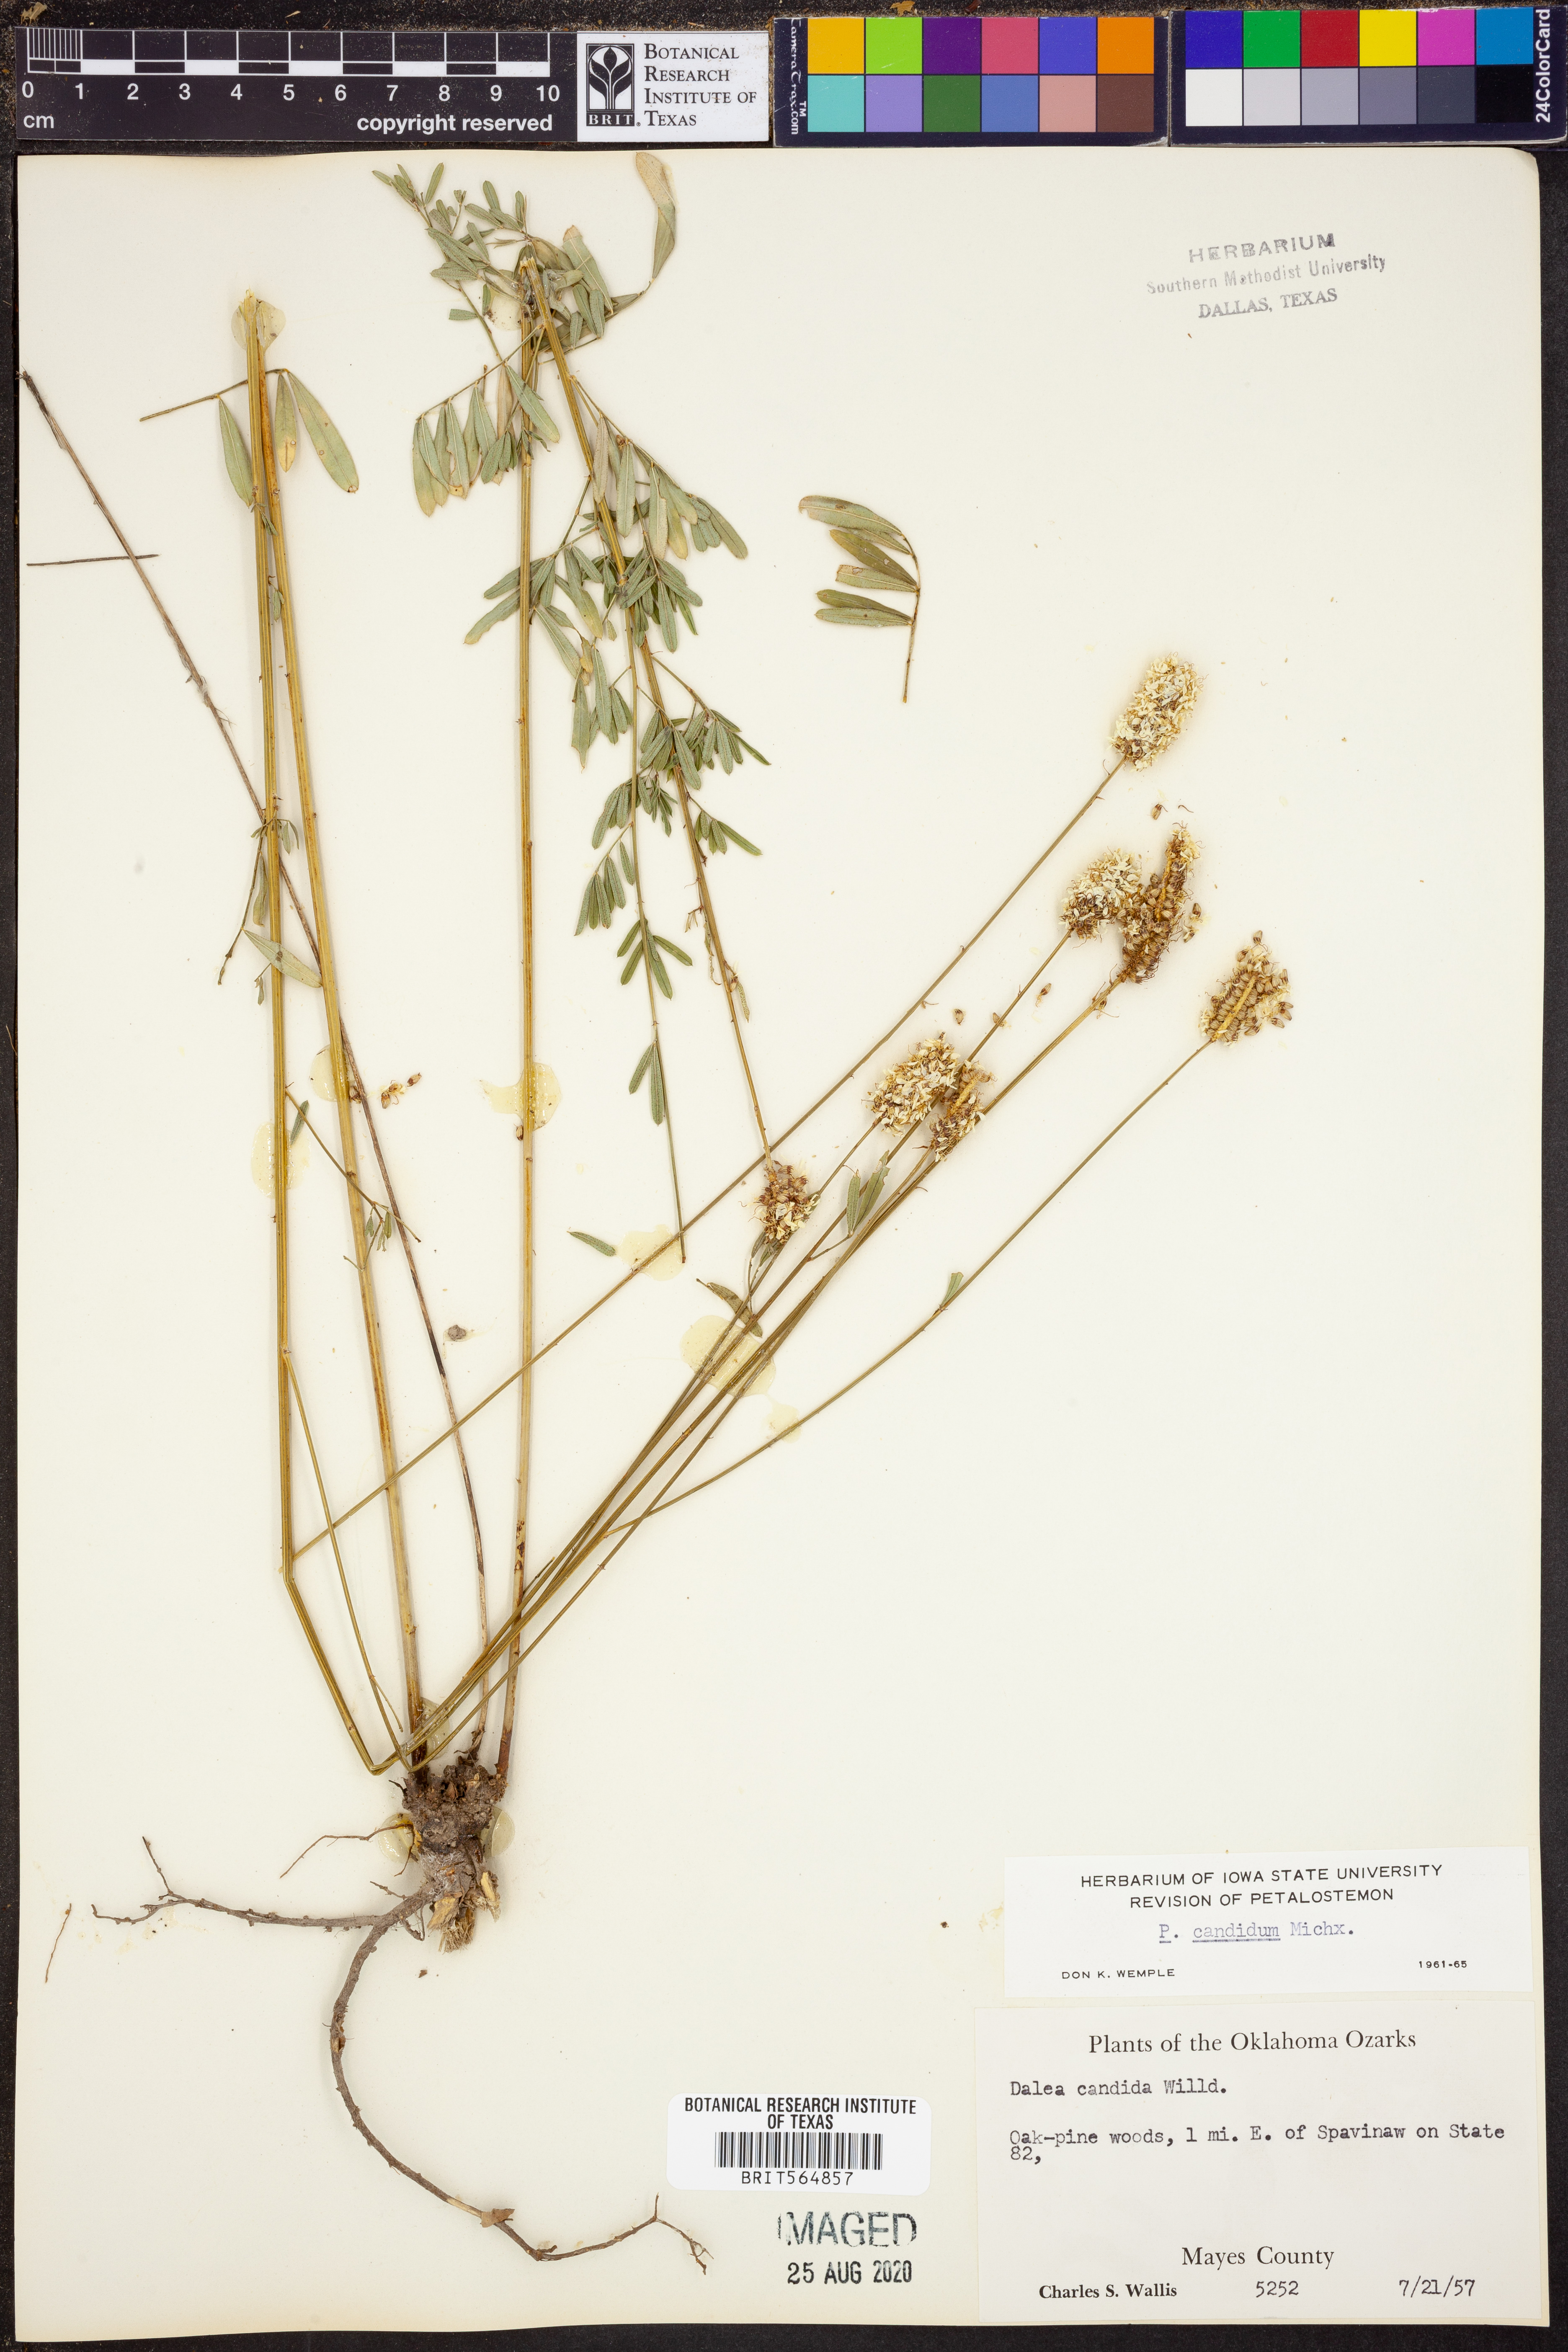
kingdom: Plantae
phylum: Tracheophyta
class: Magnoliopsida
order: Fabales
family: Fabaceae
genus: Dalea
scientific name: Dalea candida
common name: White prairie-clover
